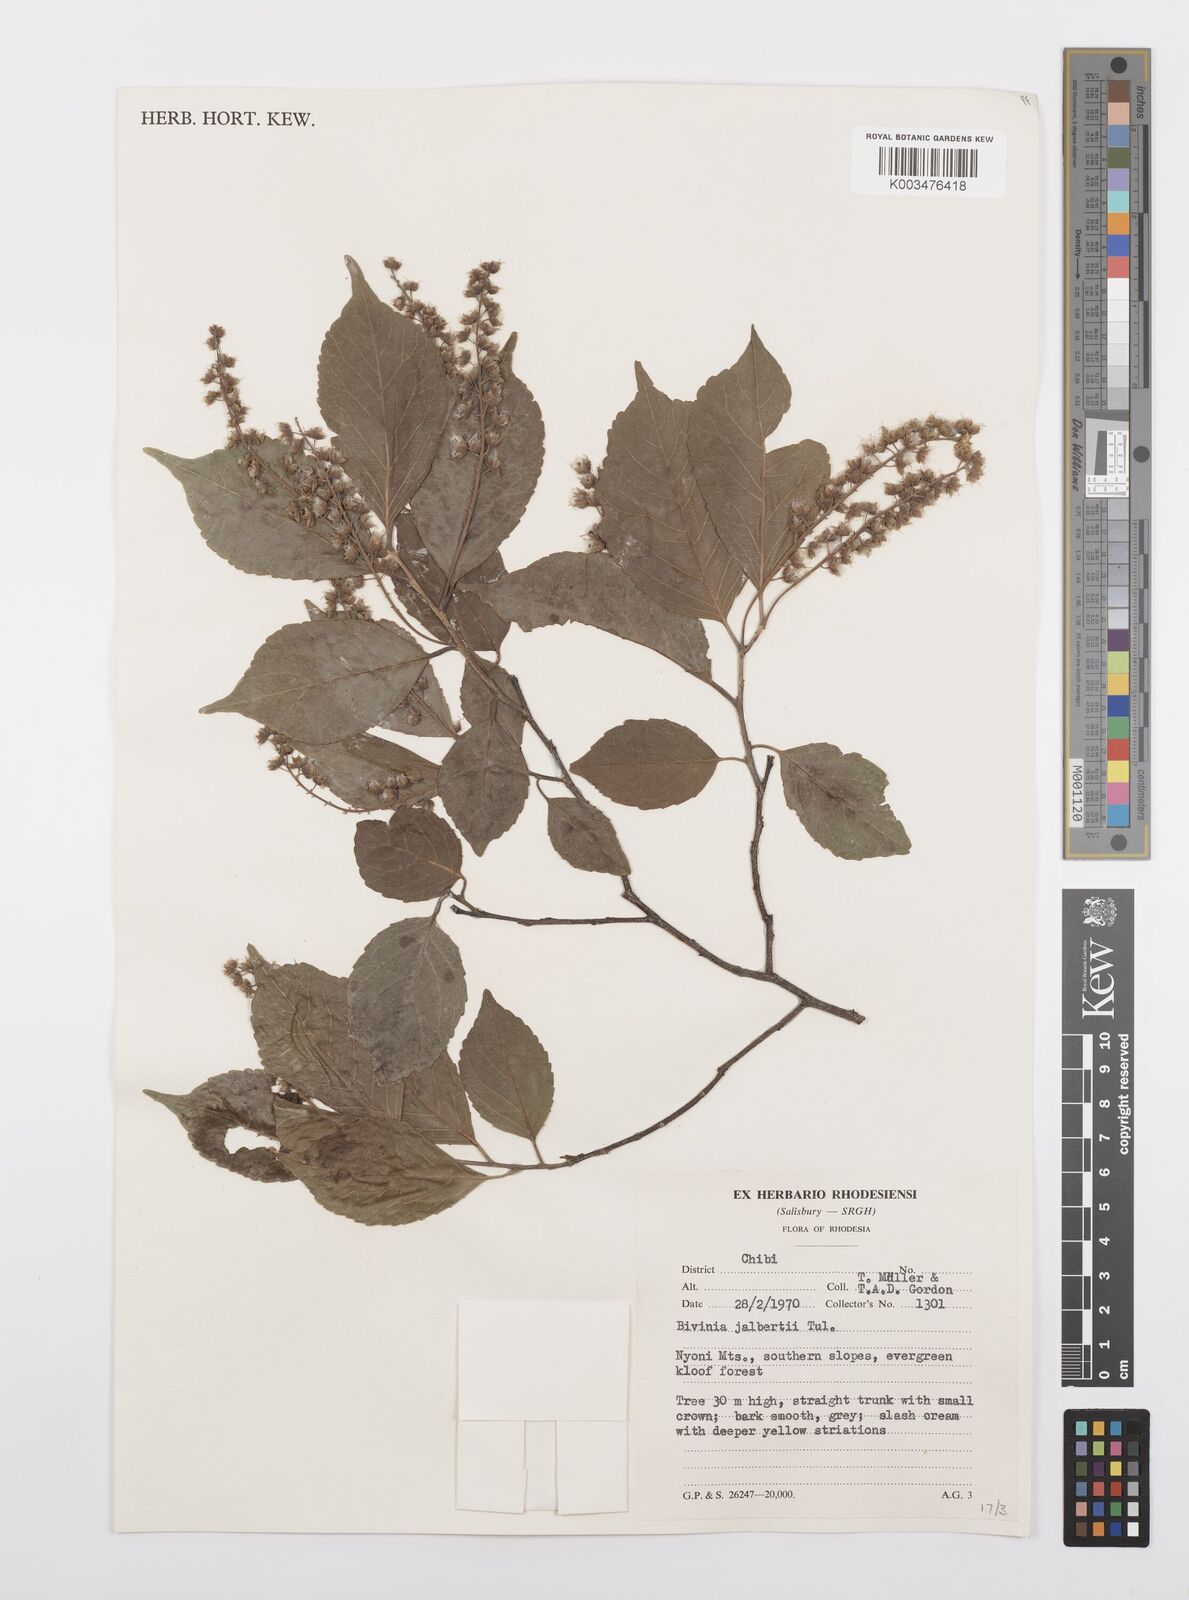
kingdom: Plantae
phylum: Tracheophyta
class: Magnoliopsida
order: Malpighiales
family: Salicaceae
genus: Bivinia
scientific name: Bivinia jalbertii
